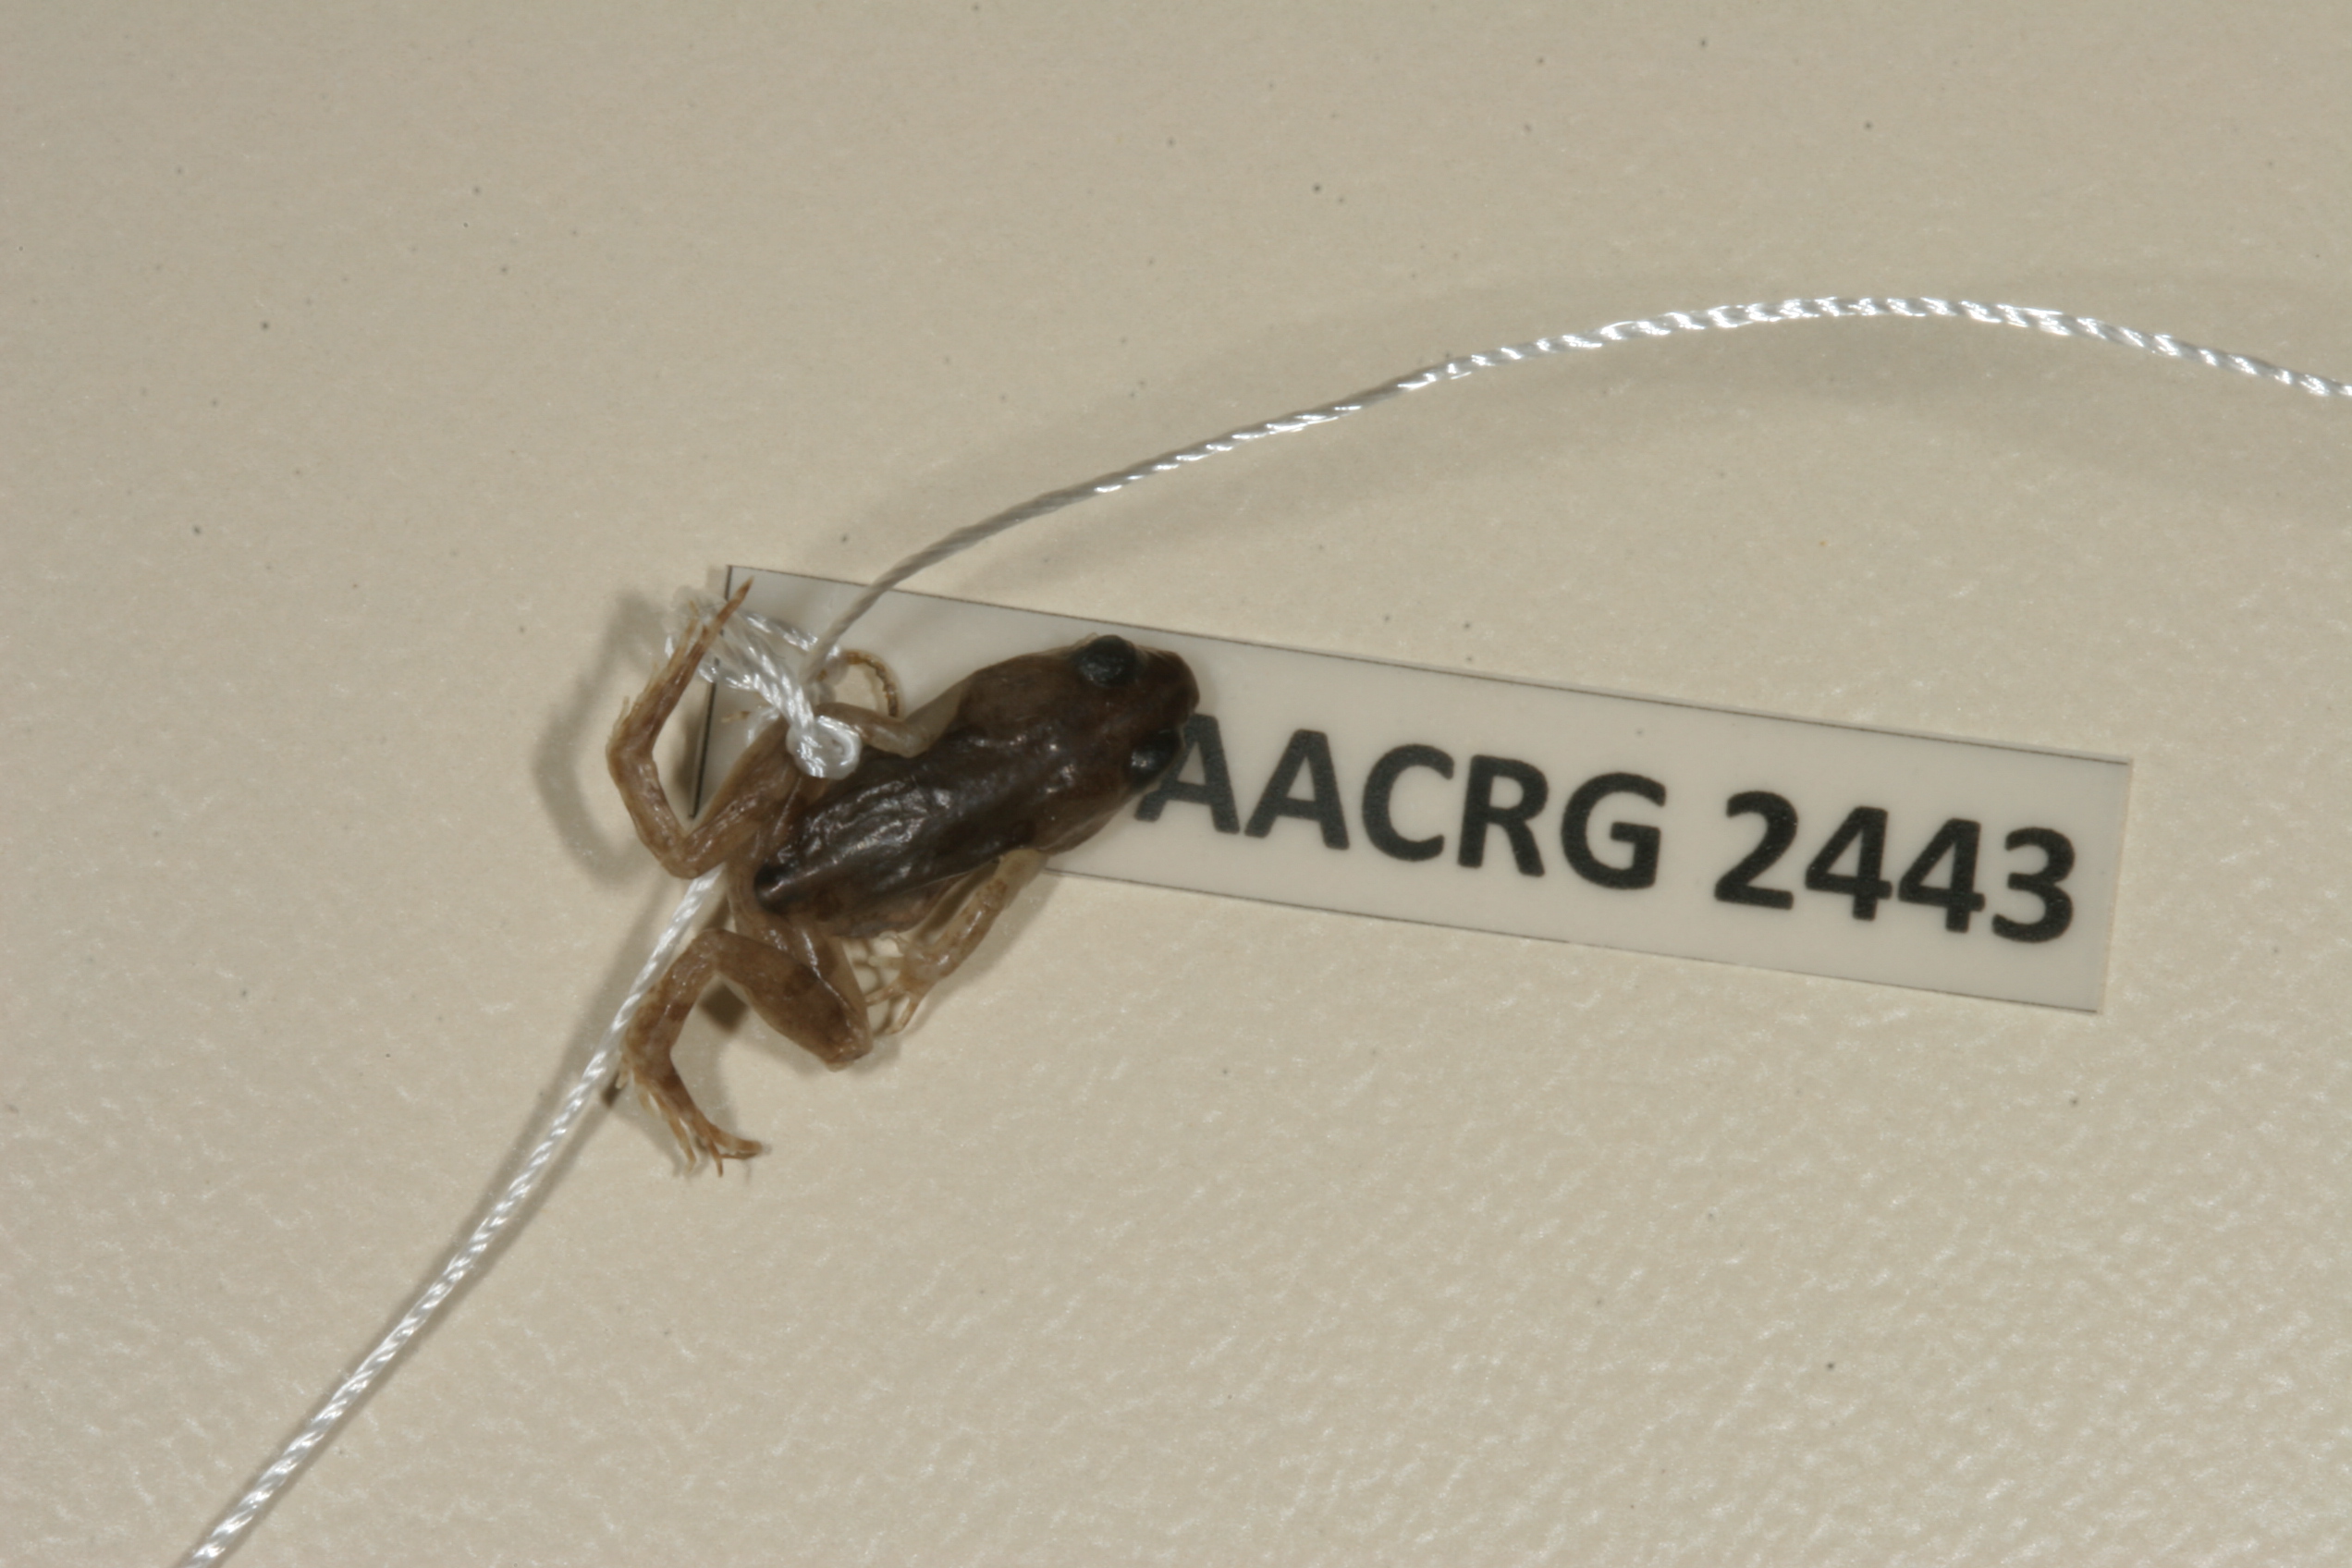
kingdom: Animalia
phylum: Chordata
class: Amphibia
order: Anura
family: Pyxicephalidae
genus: Cacosternum
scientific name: Cacosternum boettgeri
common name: Boettger's frog
